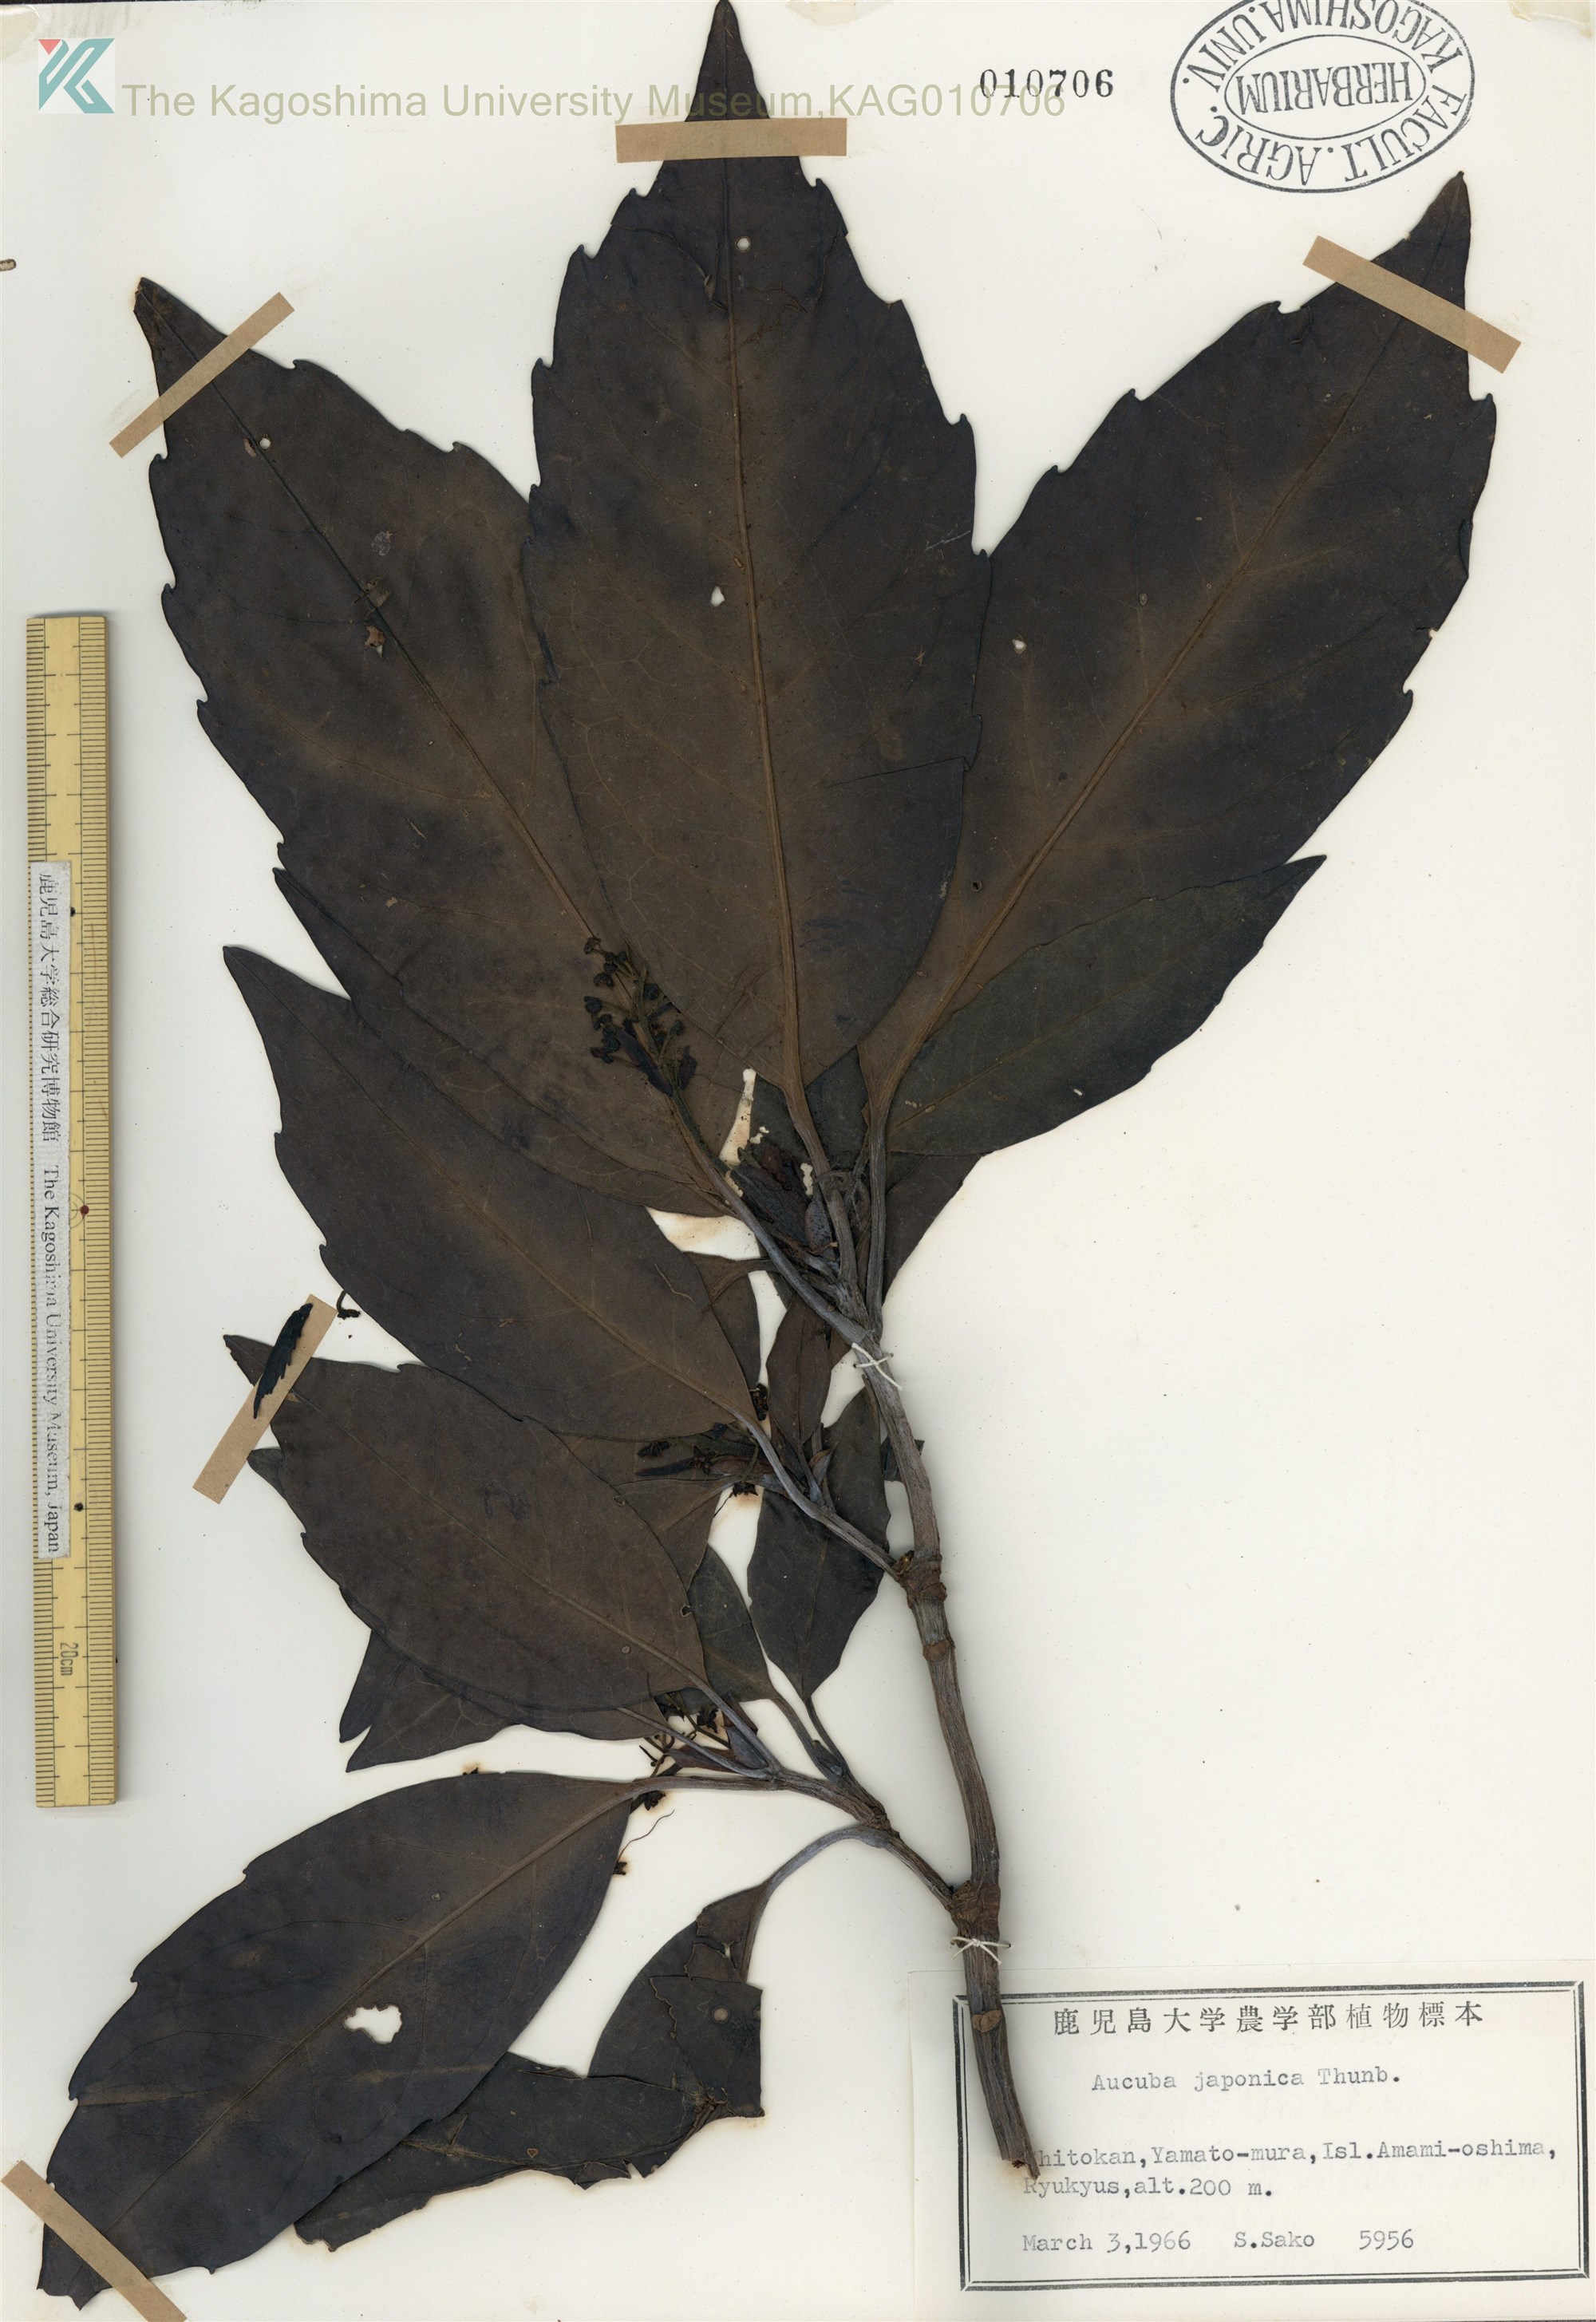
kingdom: Plantae
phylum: Tracheophyta
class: Magnoliopsida
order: Garryales
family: Garryaceae
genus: Aucuba
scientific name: Aucuba japonica
